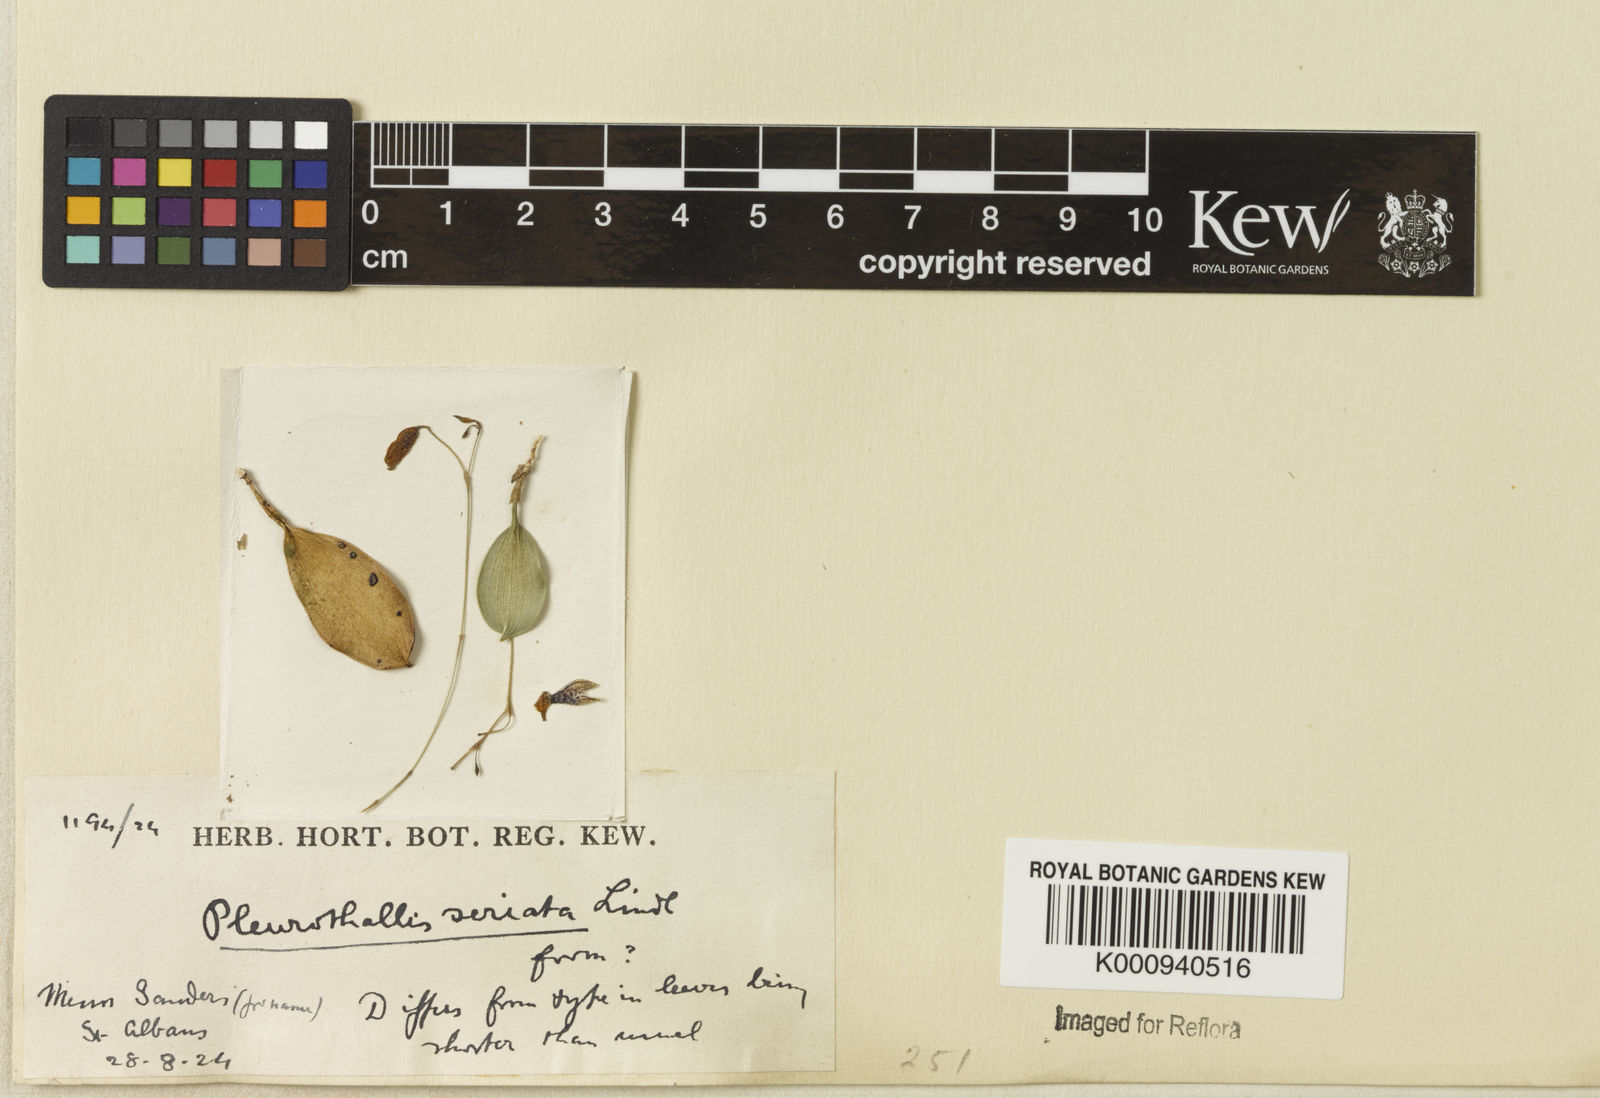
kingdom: Plantae
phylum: Tracheophyta
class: Liliopsida
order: Asparagales
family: Orchidaceae
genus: Pabstiella
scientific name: Pabstiella seriata
